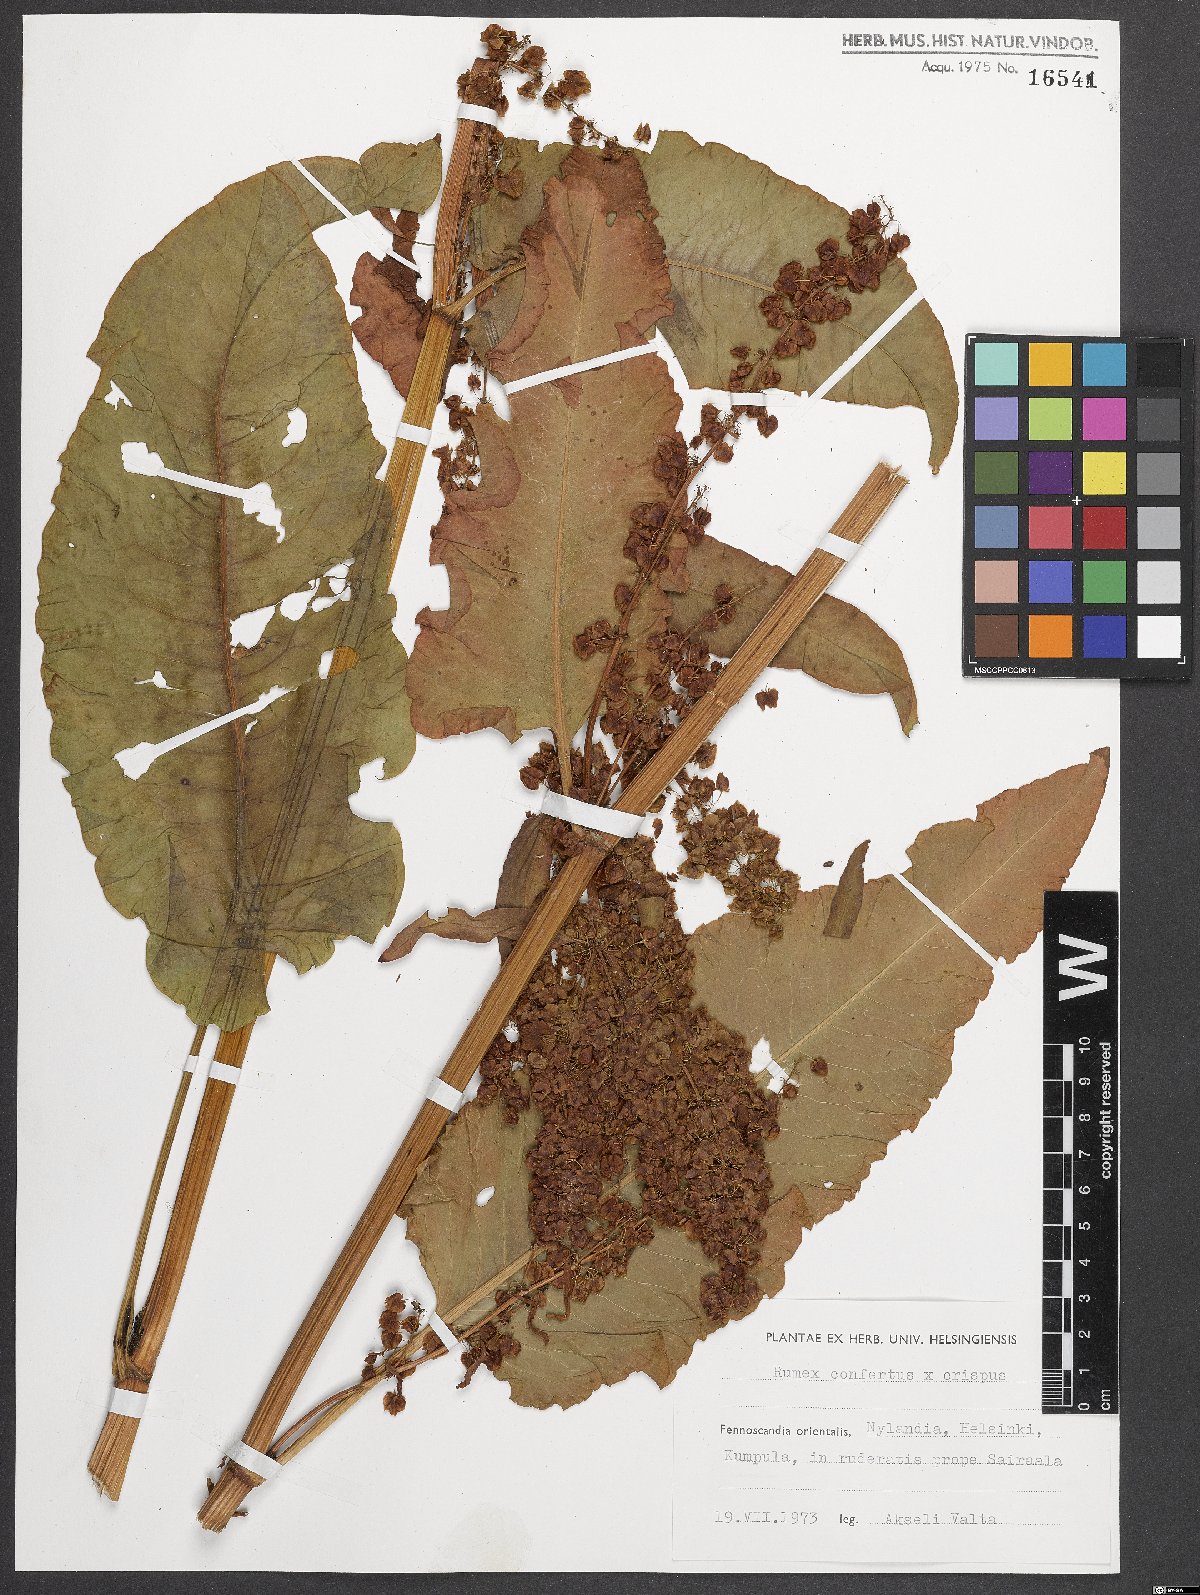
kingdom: Plantae
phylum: Tracheophyta
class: Magnoliopsida
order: Caryophyllales
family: Polygonaceae
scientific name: Polygonaceae
